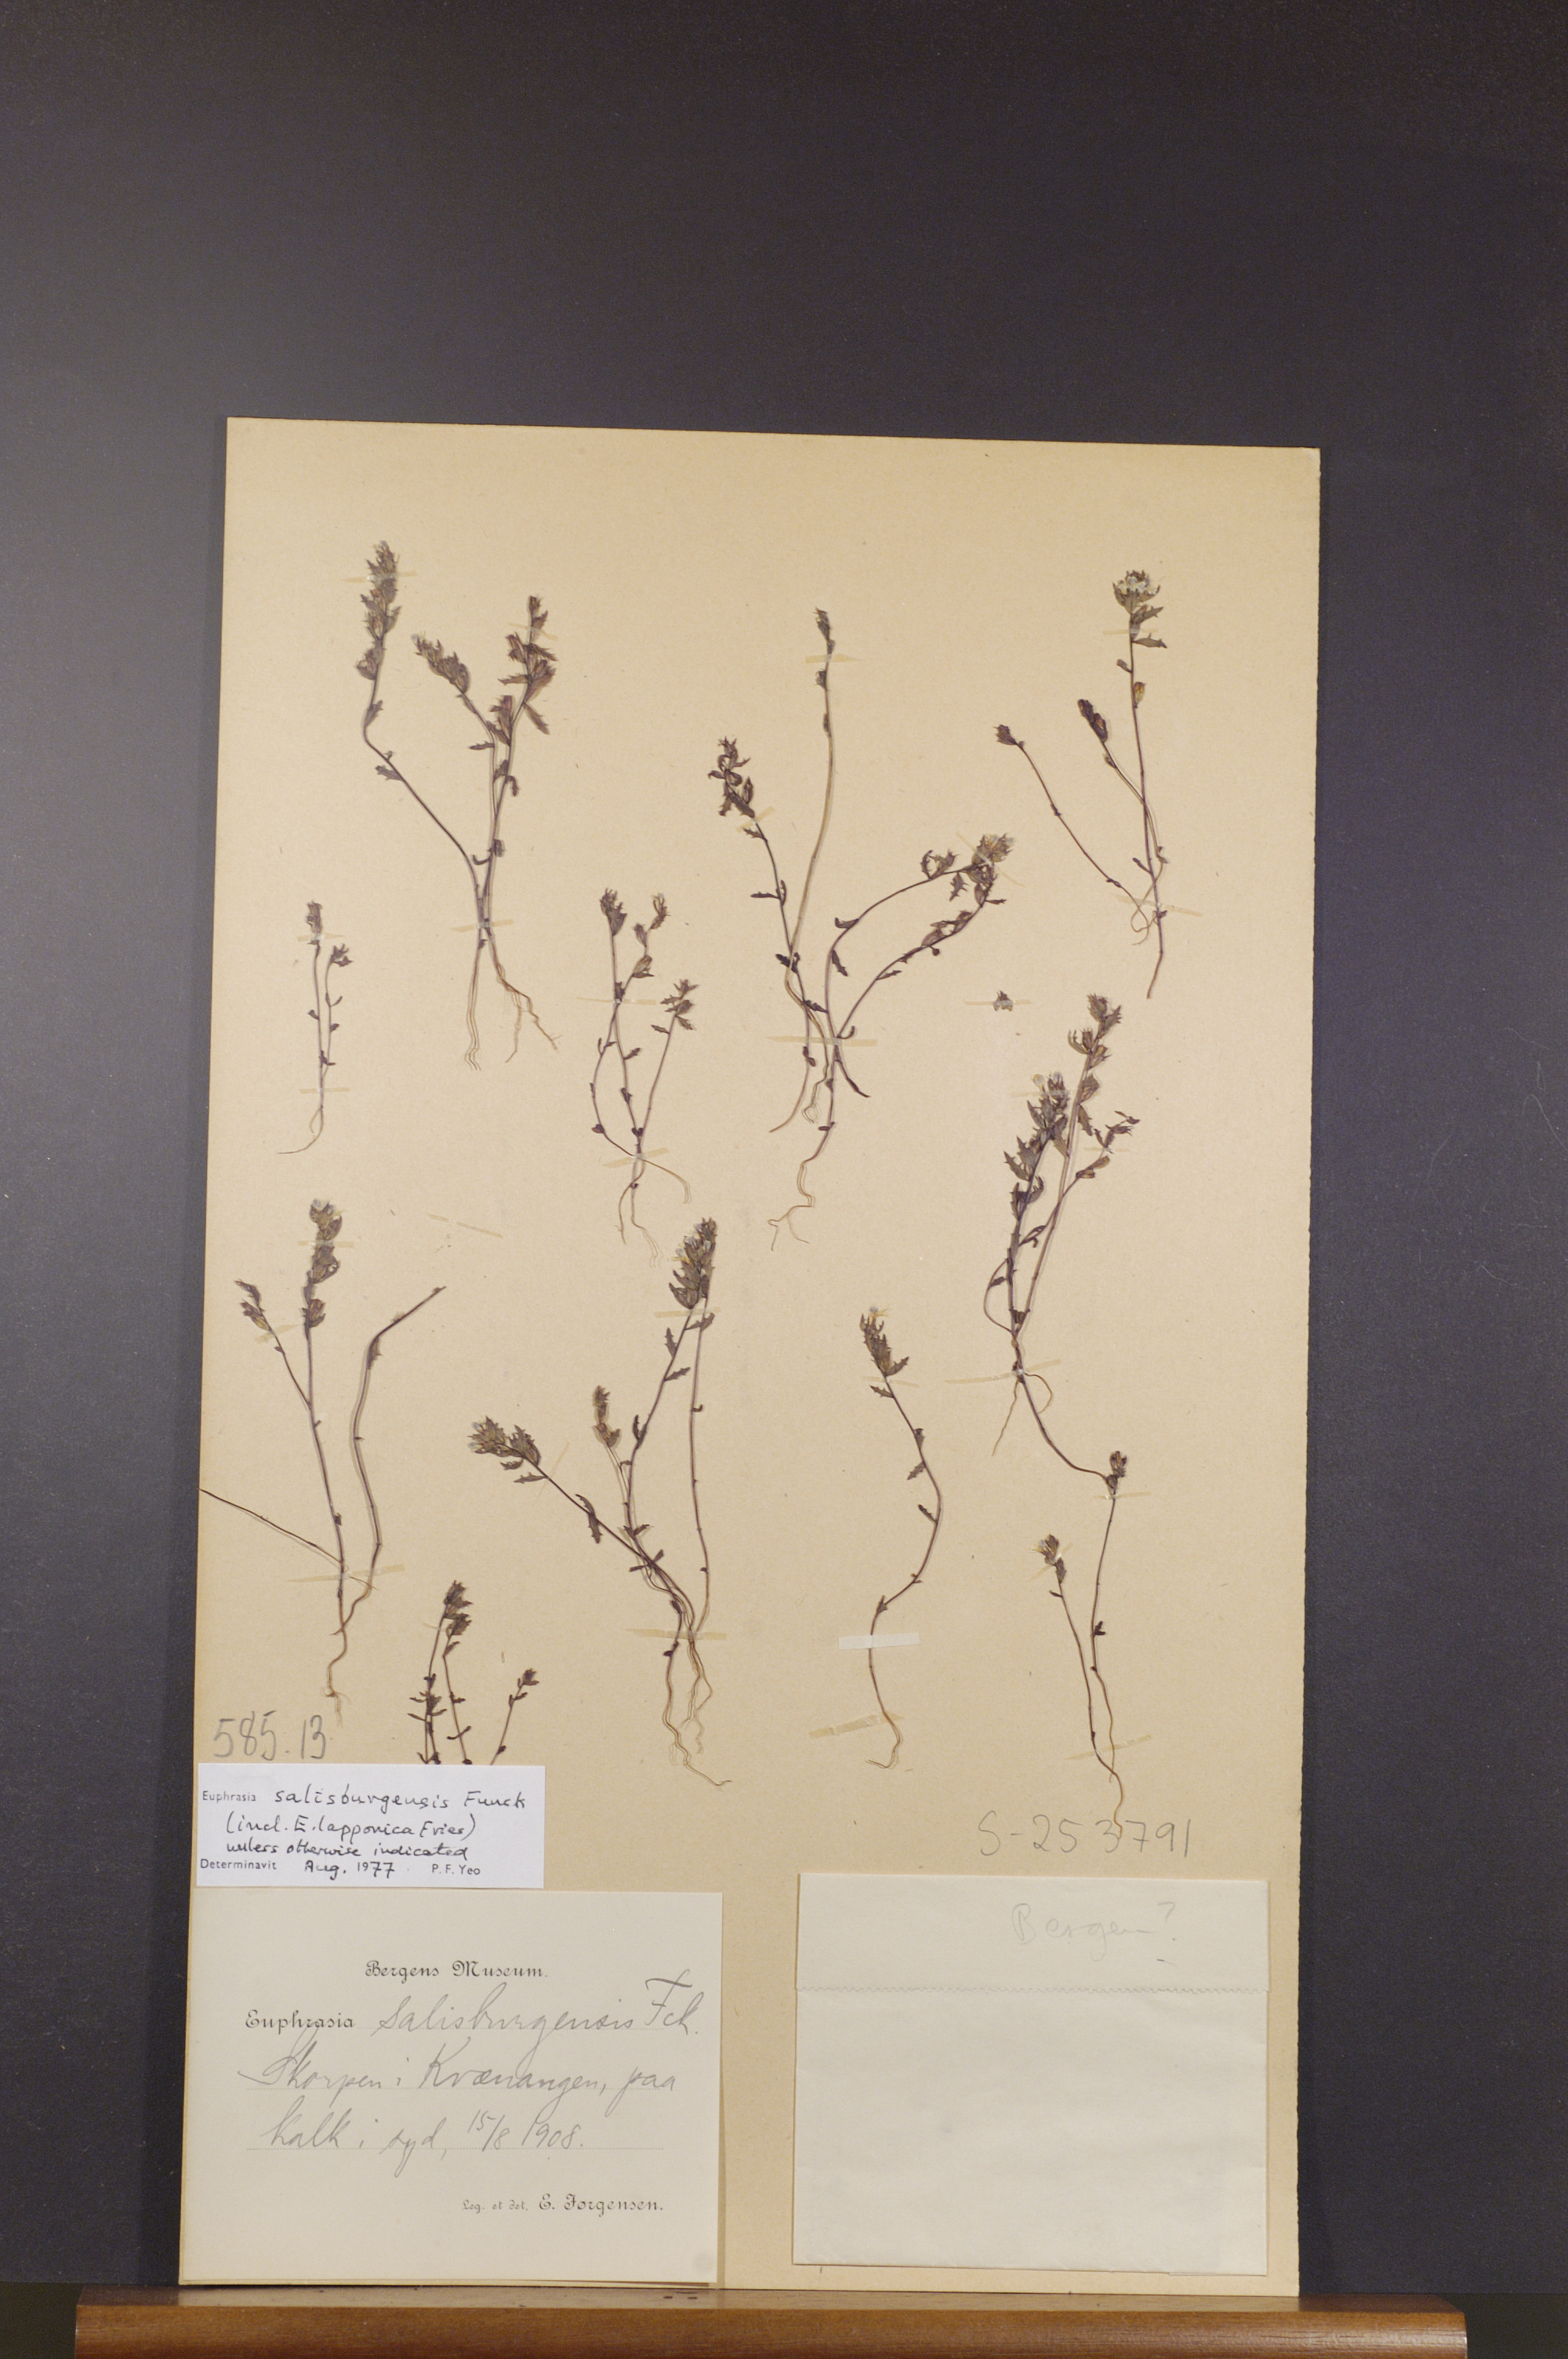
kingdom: Plantae
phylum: Tracheophyta
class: Magnoliopsida
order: Lamiales
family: Orobanchaceae
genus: Euphrasia
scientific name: Euphrasia salisburgensis
